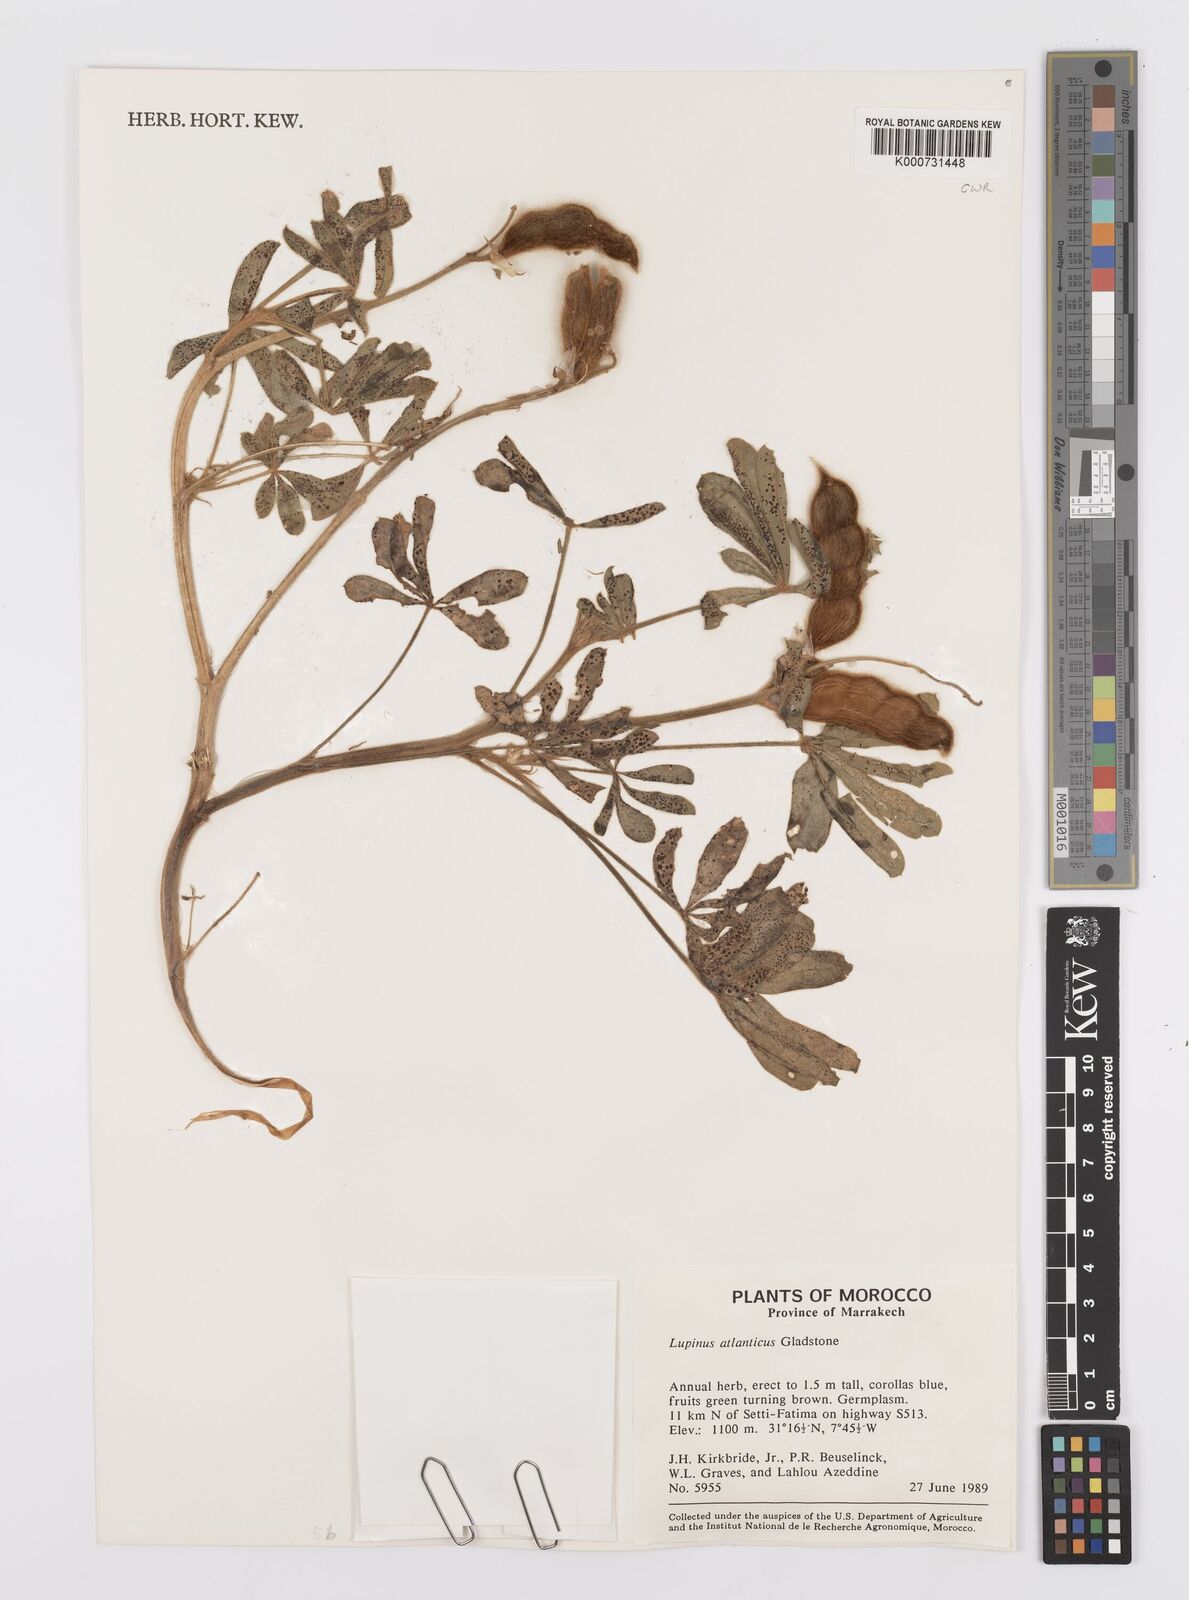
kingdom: Plantae
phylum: Tracheophyta
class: Magnoliopsida
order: Fabales
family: Fabaceae
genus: Lupinus
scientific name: Lupinus atlanticus
